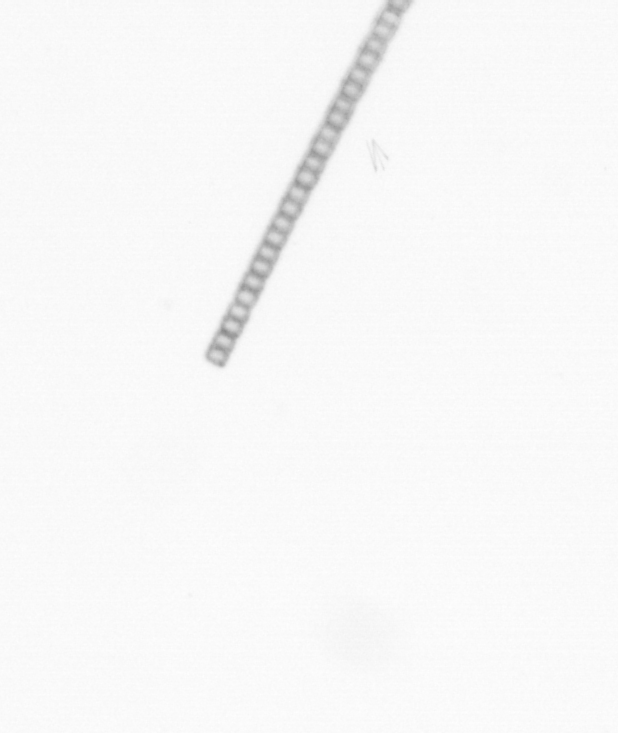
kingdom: Chromista
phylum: Ochrophyta
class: Bacillariophyceae
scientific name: Bacillariophyceae
